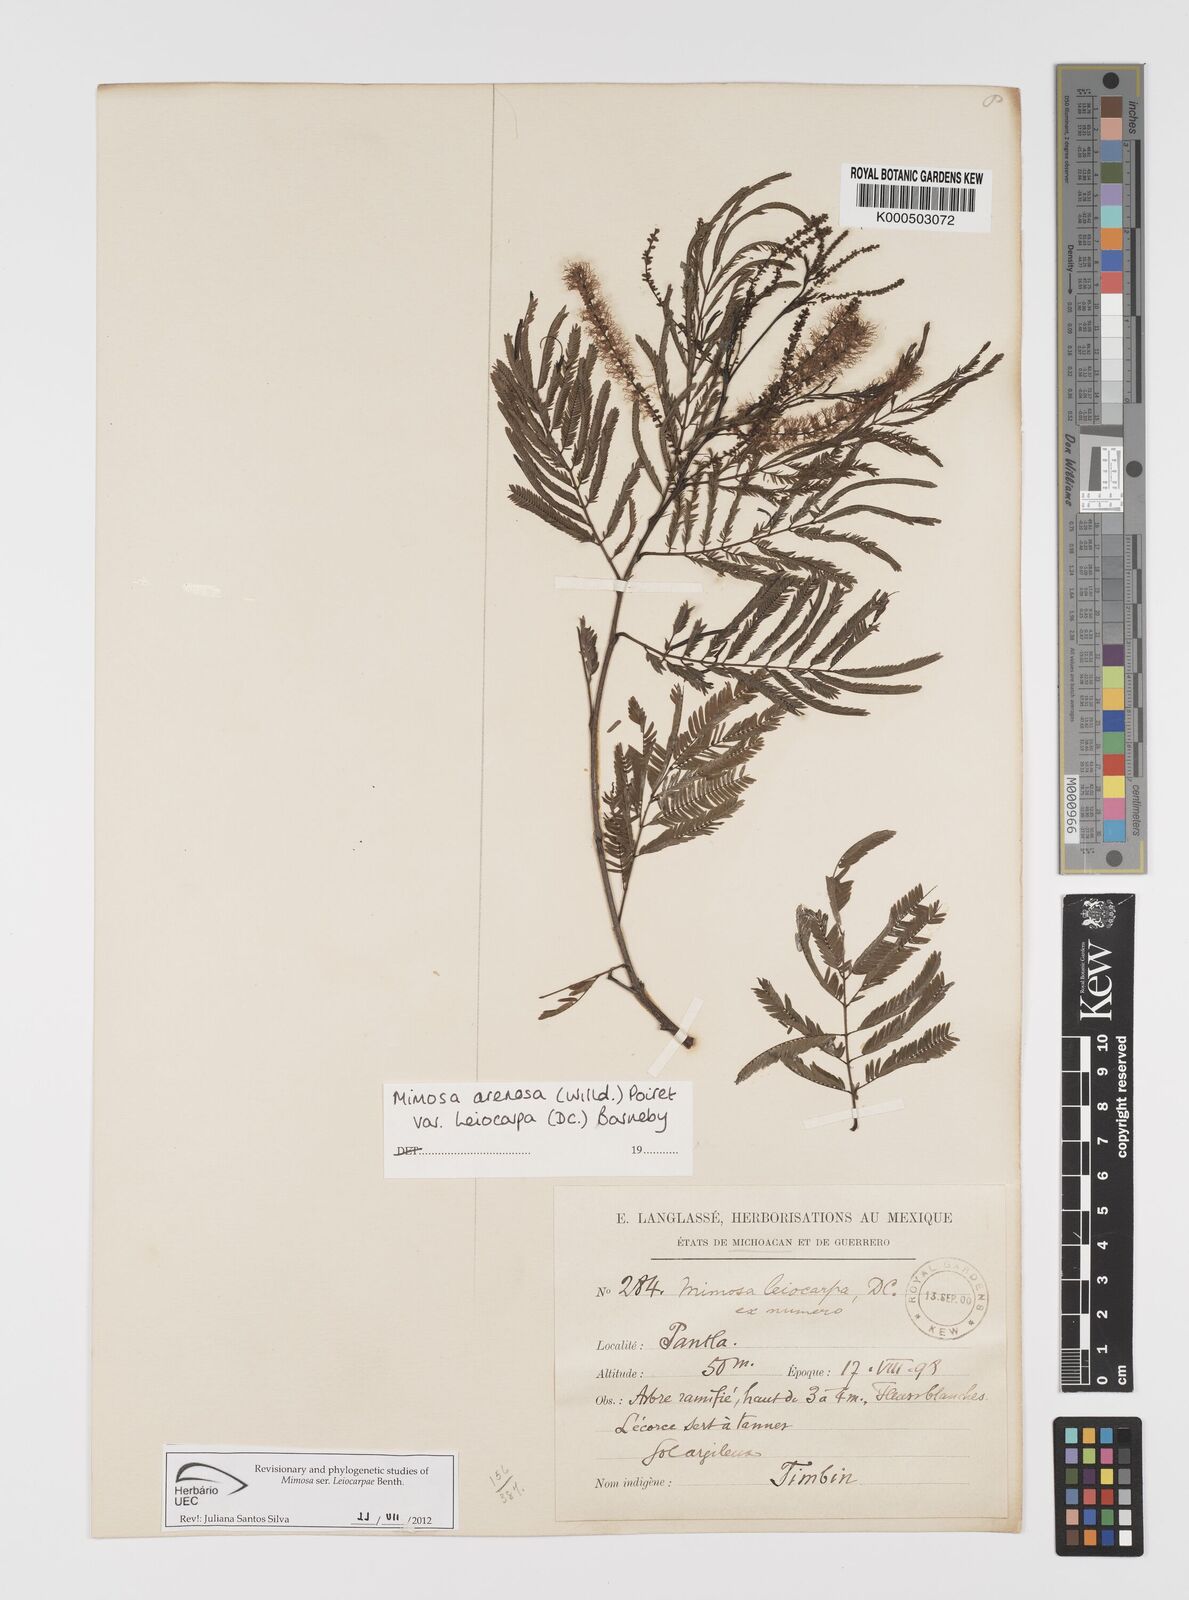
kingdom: Plantae
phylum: Tracheophyta
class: Magnoliopsida
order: Fabales
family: Fabaceae
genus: Mimosa
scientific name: Mimosa arenosa
